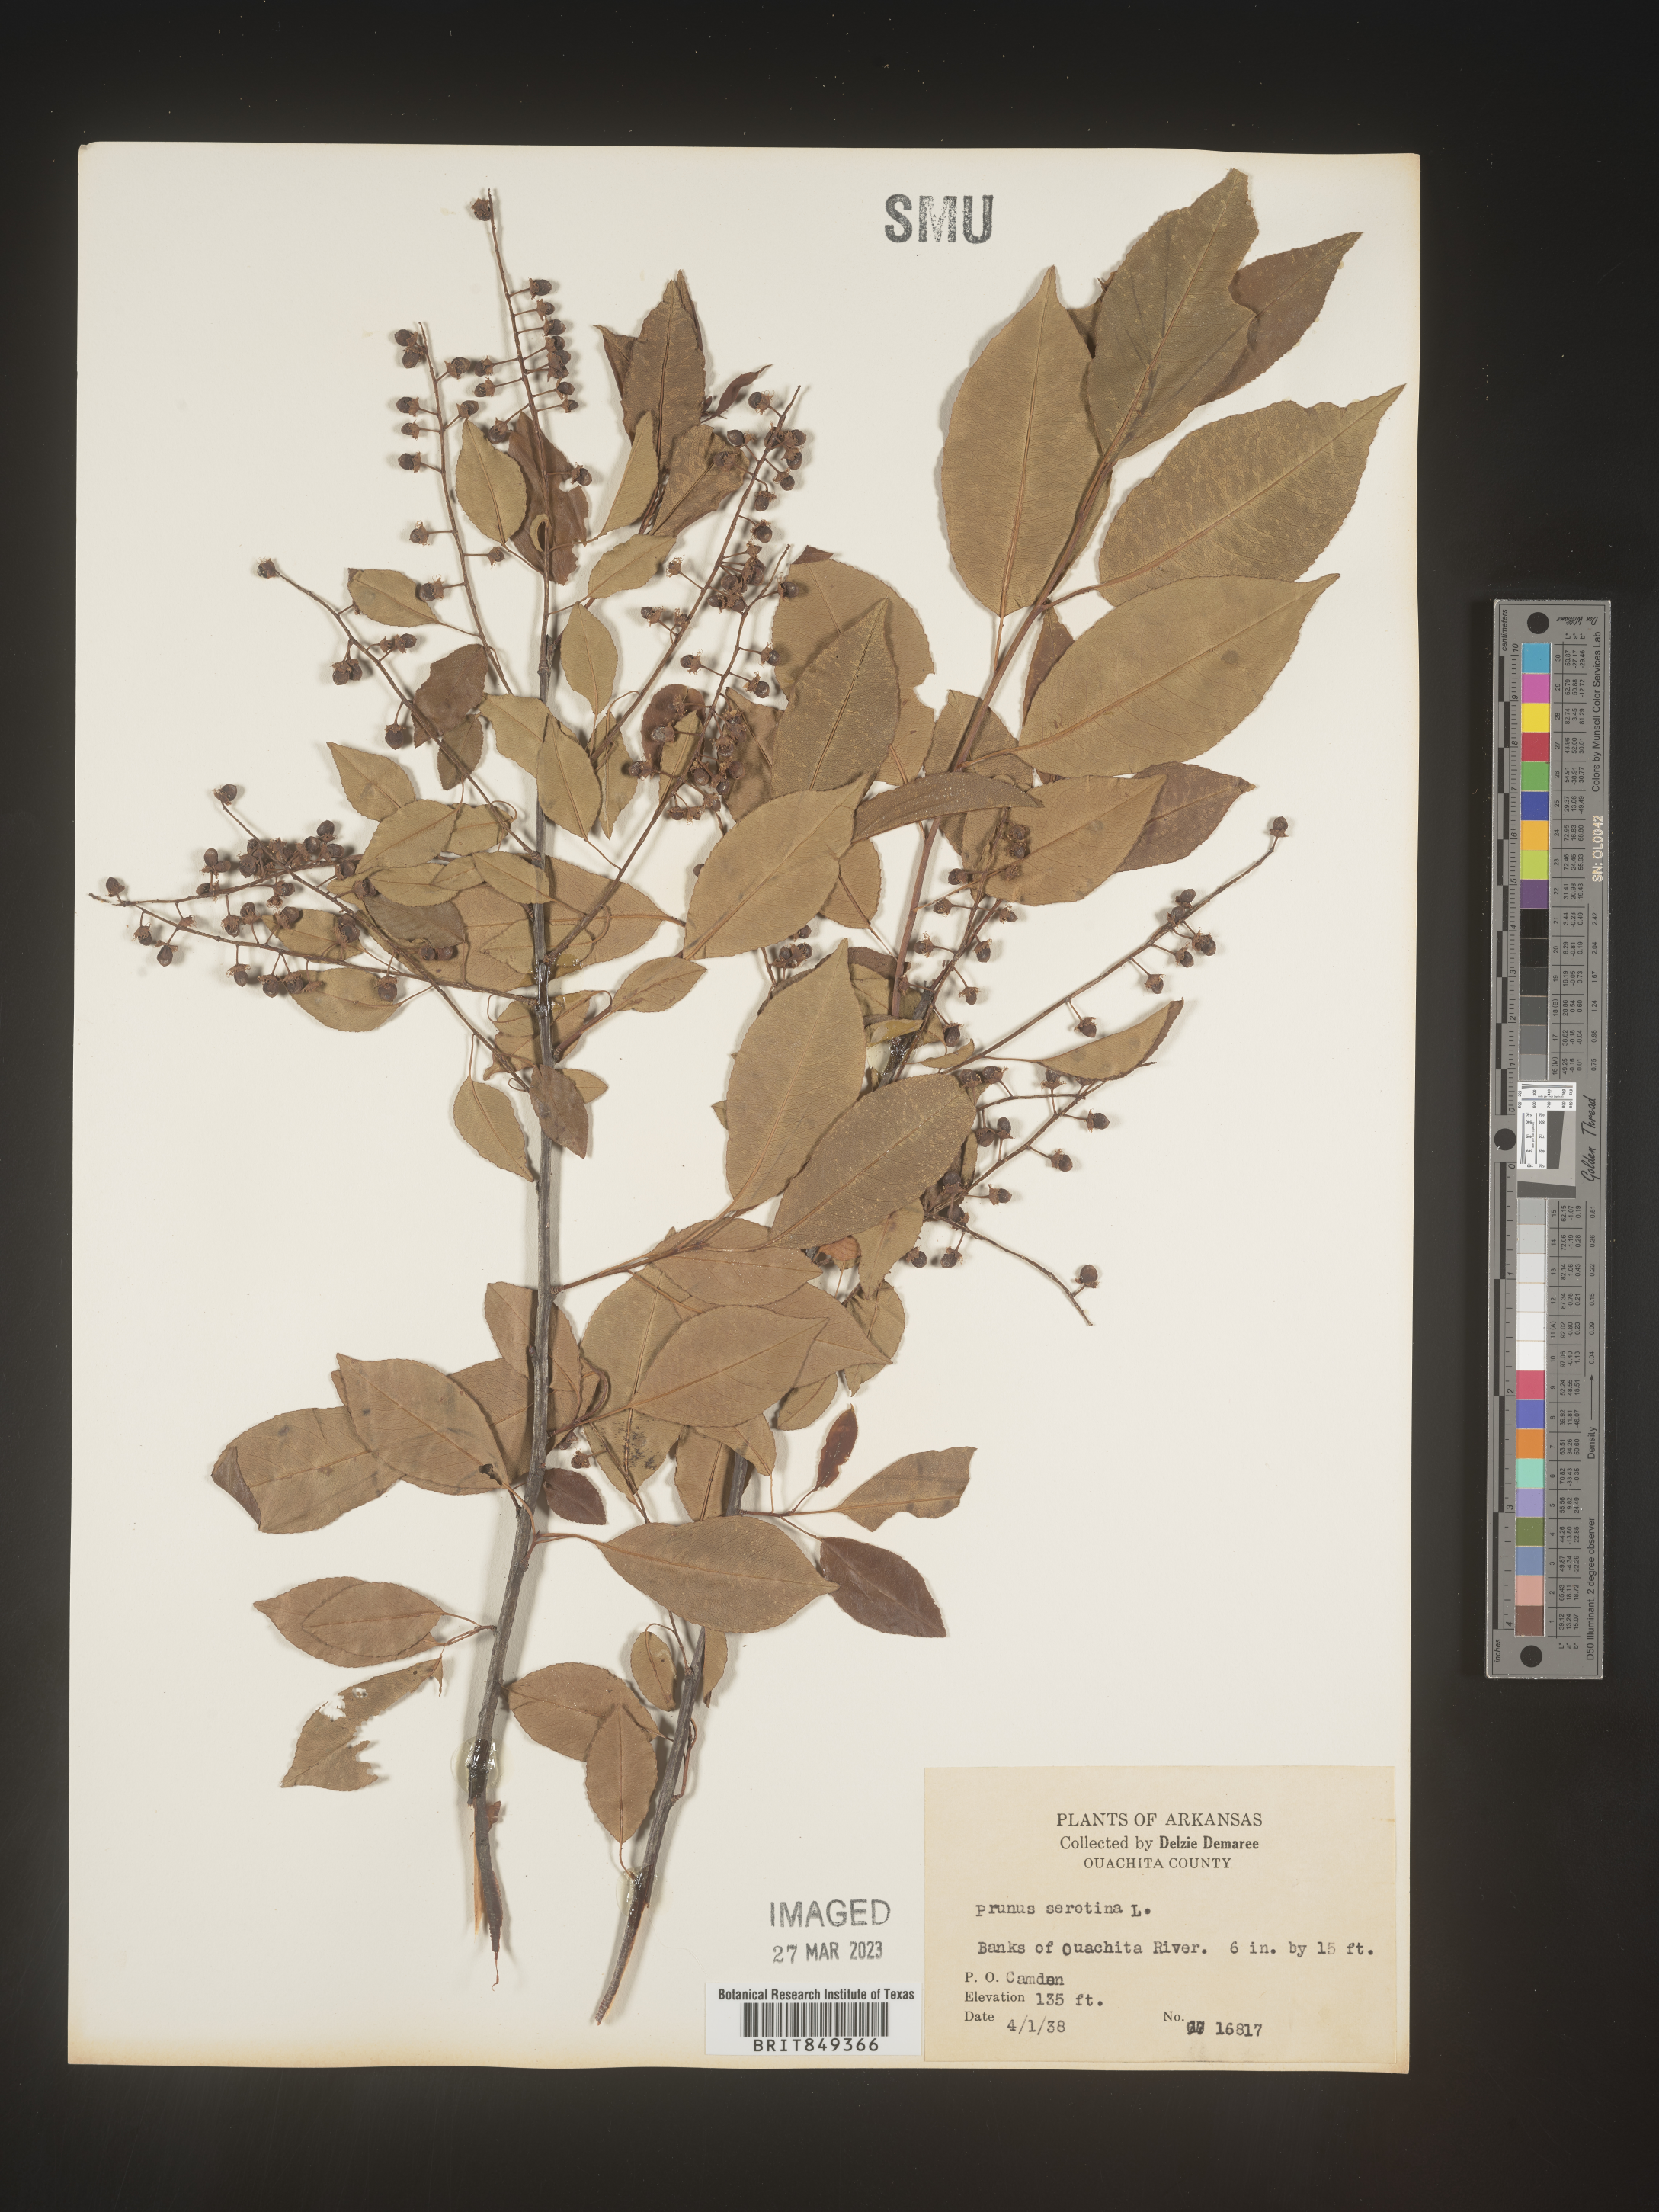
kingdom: Plantae
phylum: Tracheophyta
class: Magnoliopsida
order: Rosales
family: Rosaceae
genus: Prunus
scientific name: Prunus serotina
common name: Black cherry
